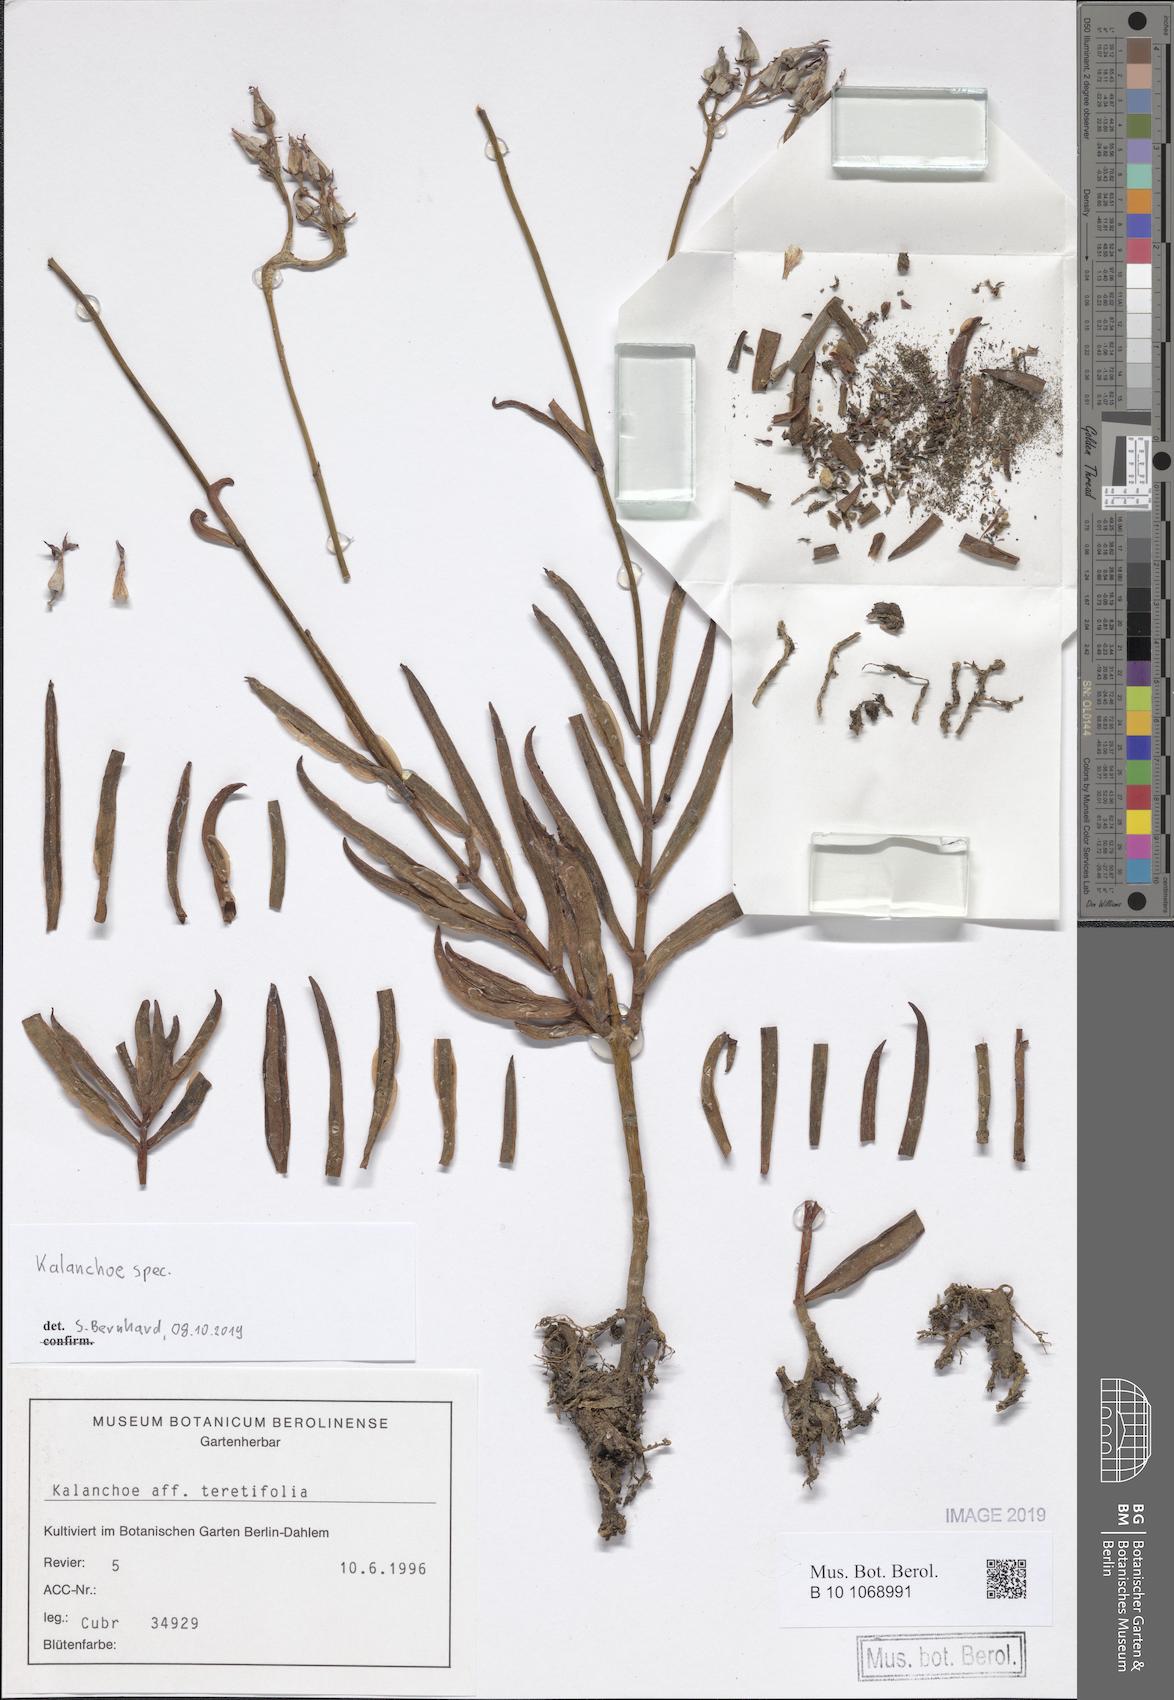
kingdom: Plantae
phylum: Tracheophyta
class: Magnoliopsida
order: Saxifragales
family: Crassulaceae
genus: Kalanchoe
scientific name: Kalanchoe
